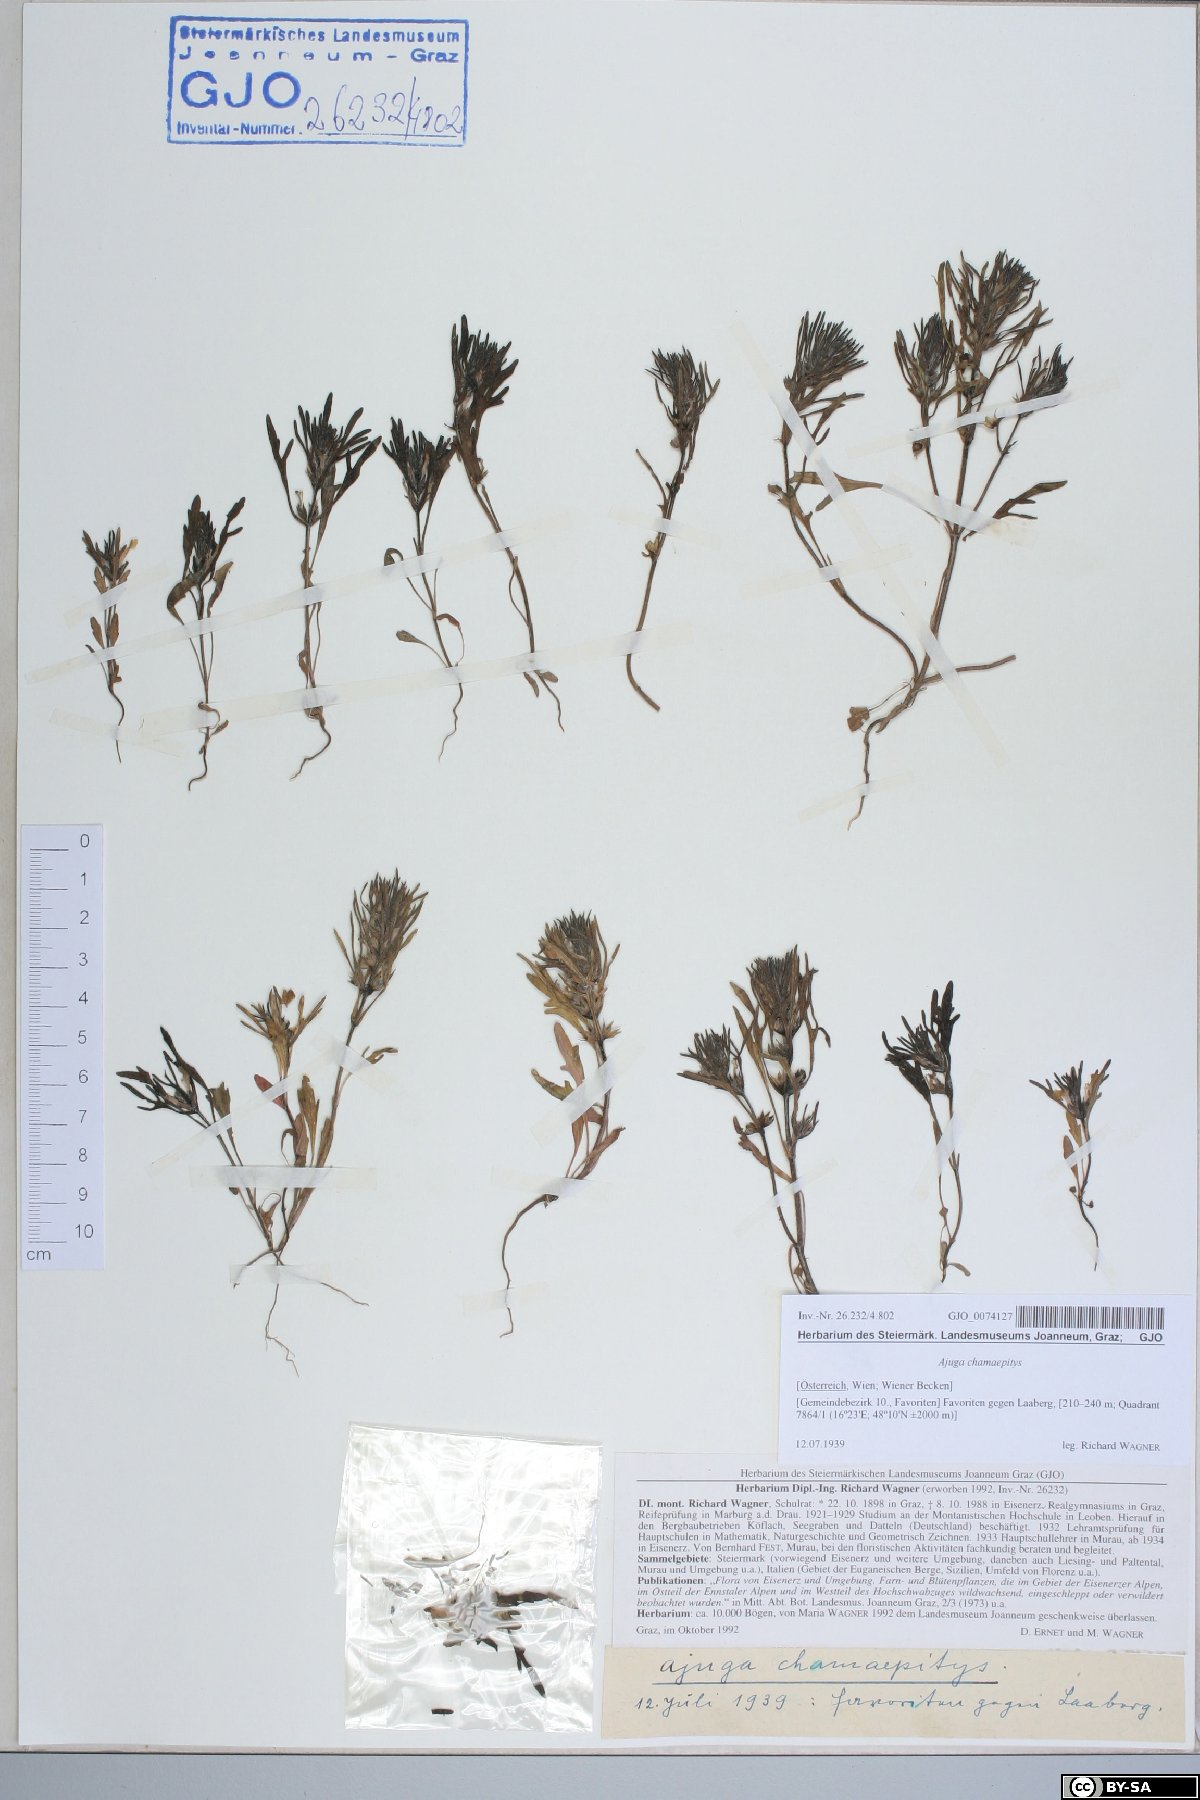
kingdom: Plantae
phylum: Tracheophyta
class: Magnoliopsida
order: Lamiales
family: Lamiaceae
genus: Ajuga
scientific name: Ajuga chamaepitys
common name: Ground-pine
